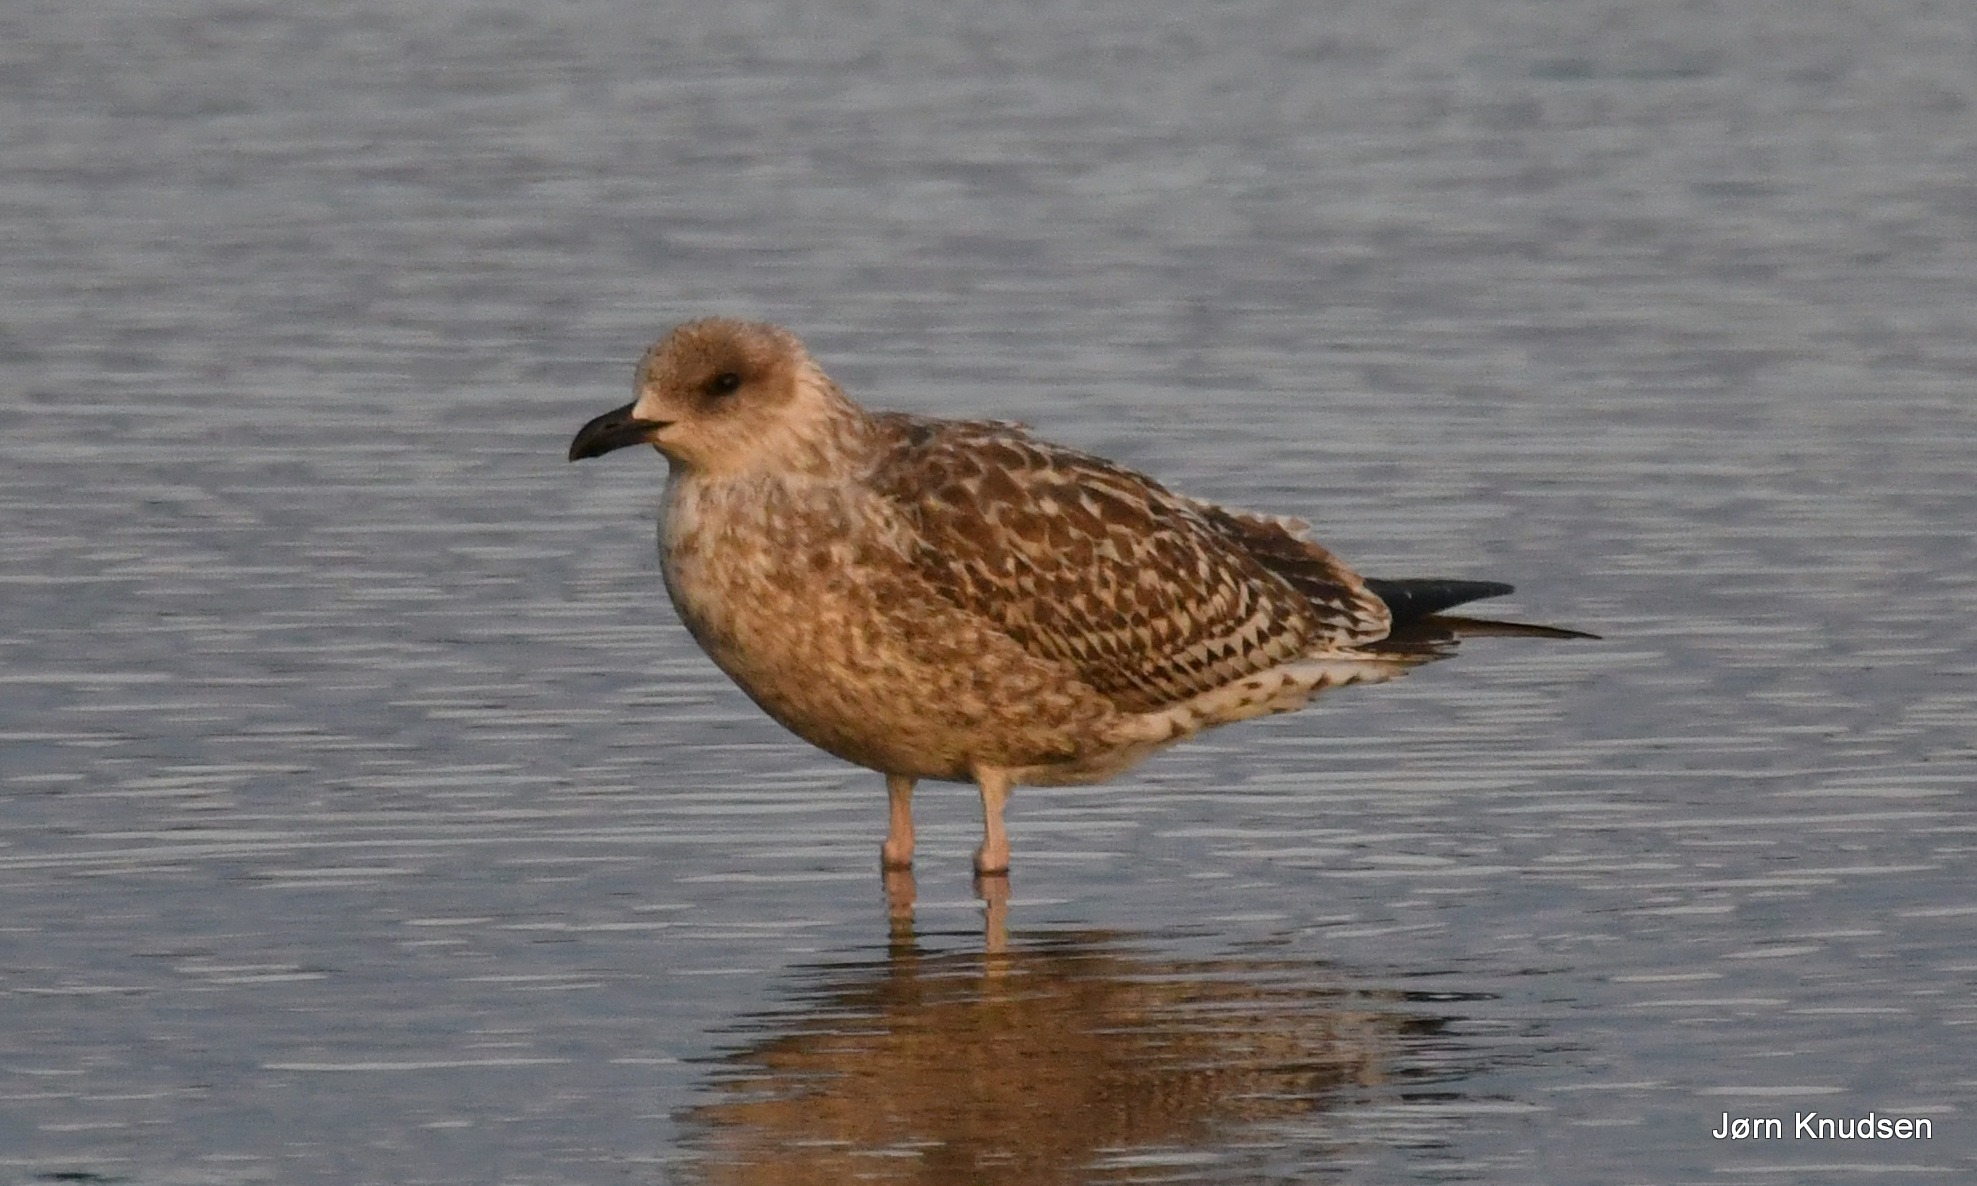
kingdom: Animalia
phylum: Chordata
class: Aves
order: Charadriiformes
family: Laridae
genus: Larus
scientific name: Larus argentatus
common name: Sølvmåge
